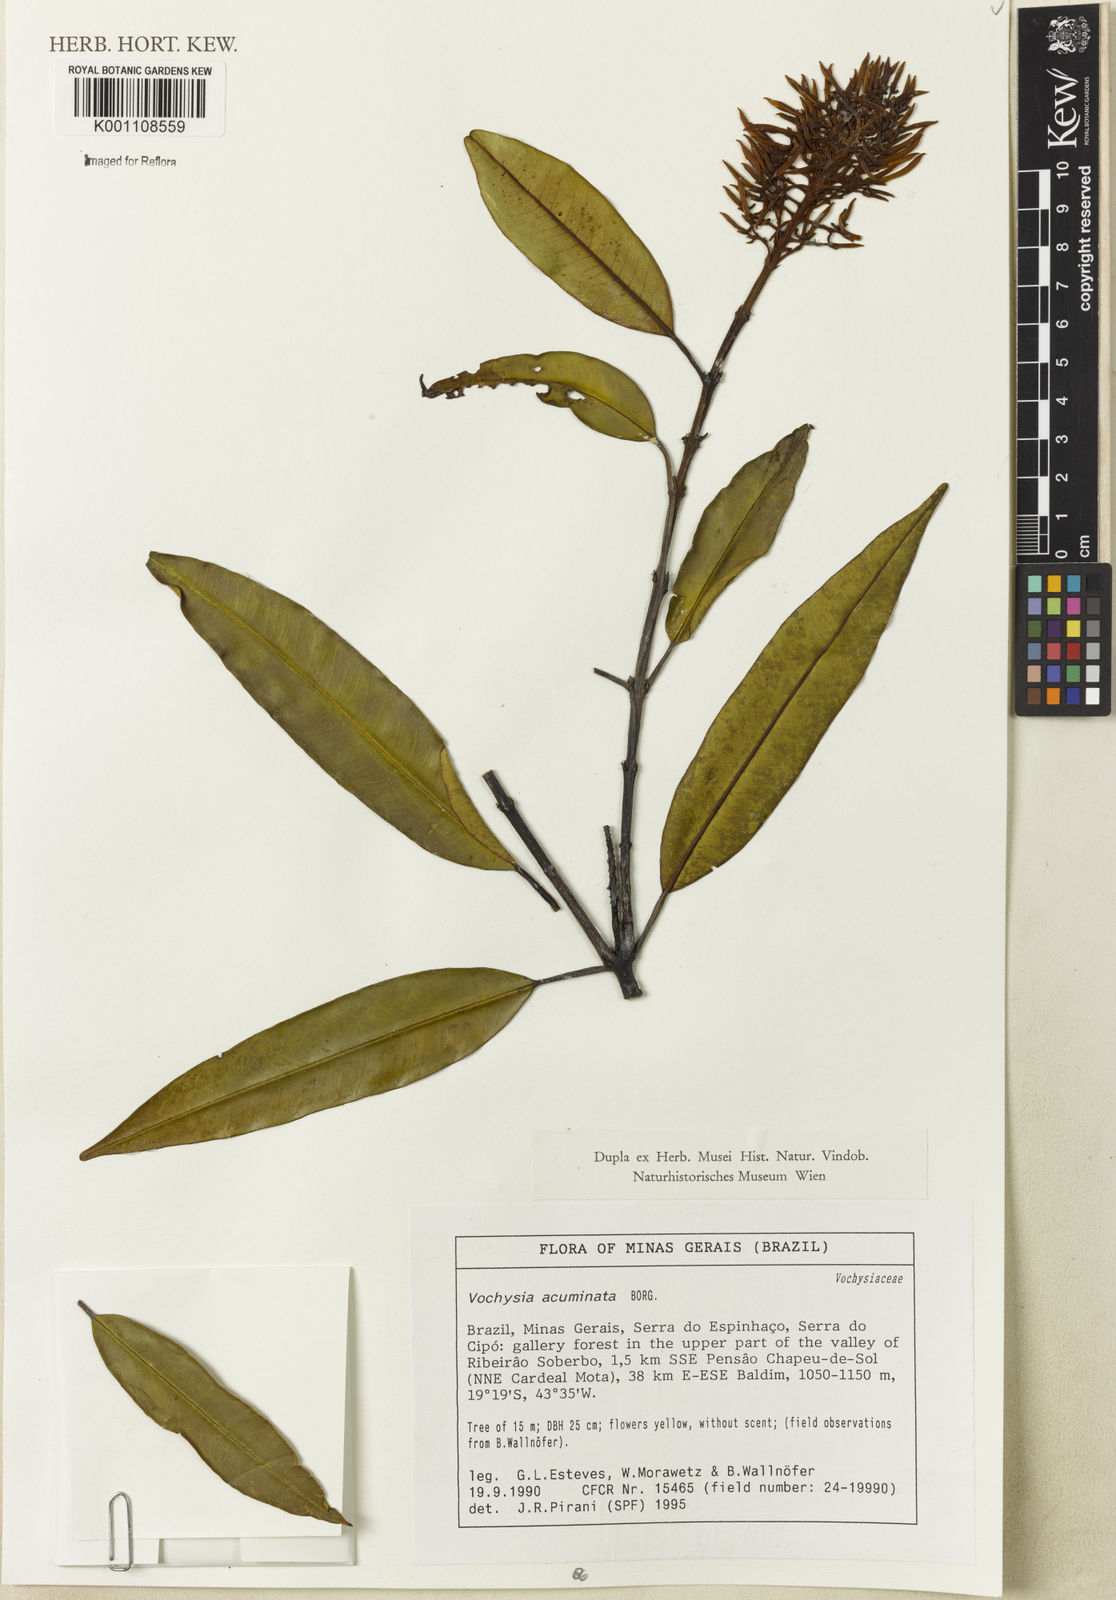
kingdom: Plantae
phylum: Tracheophyta
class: Magnoliopsida
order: Myrtales
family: Vochysiaceae
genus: Vochysia
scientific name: Vochysia acuminata
